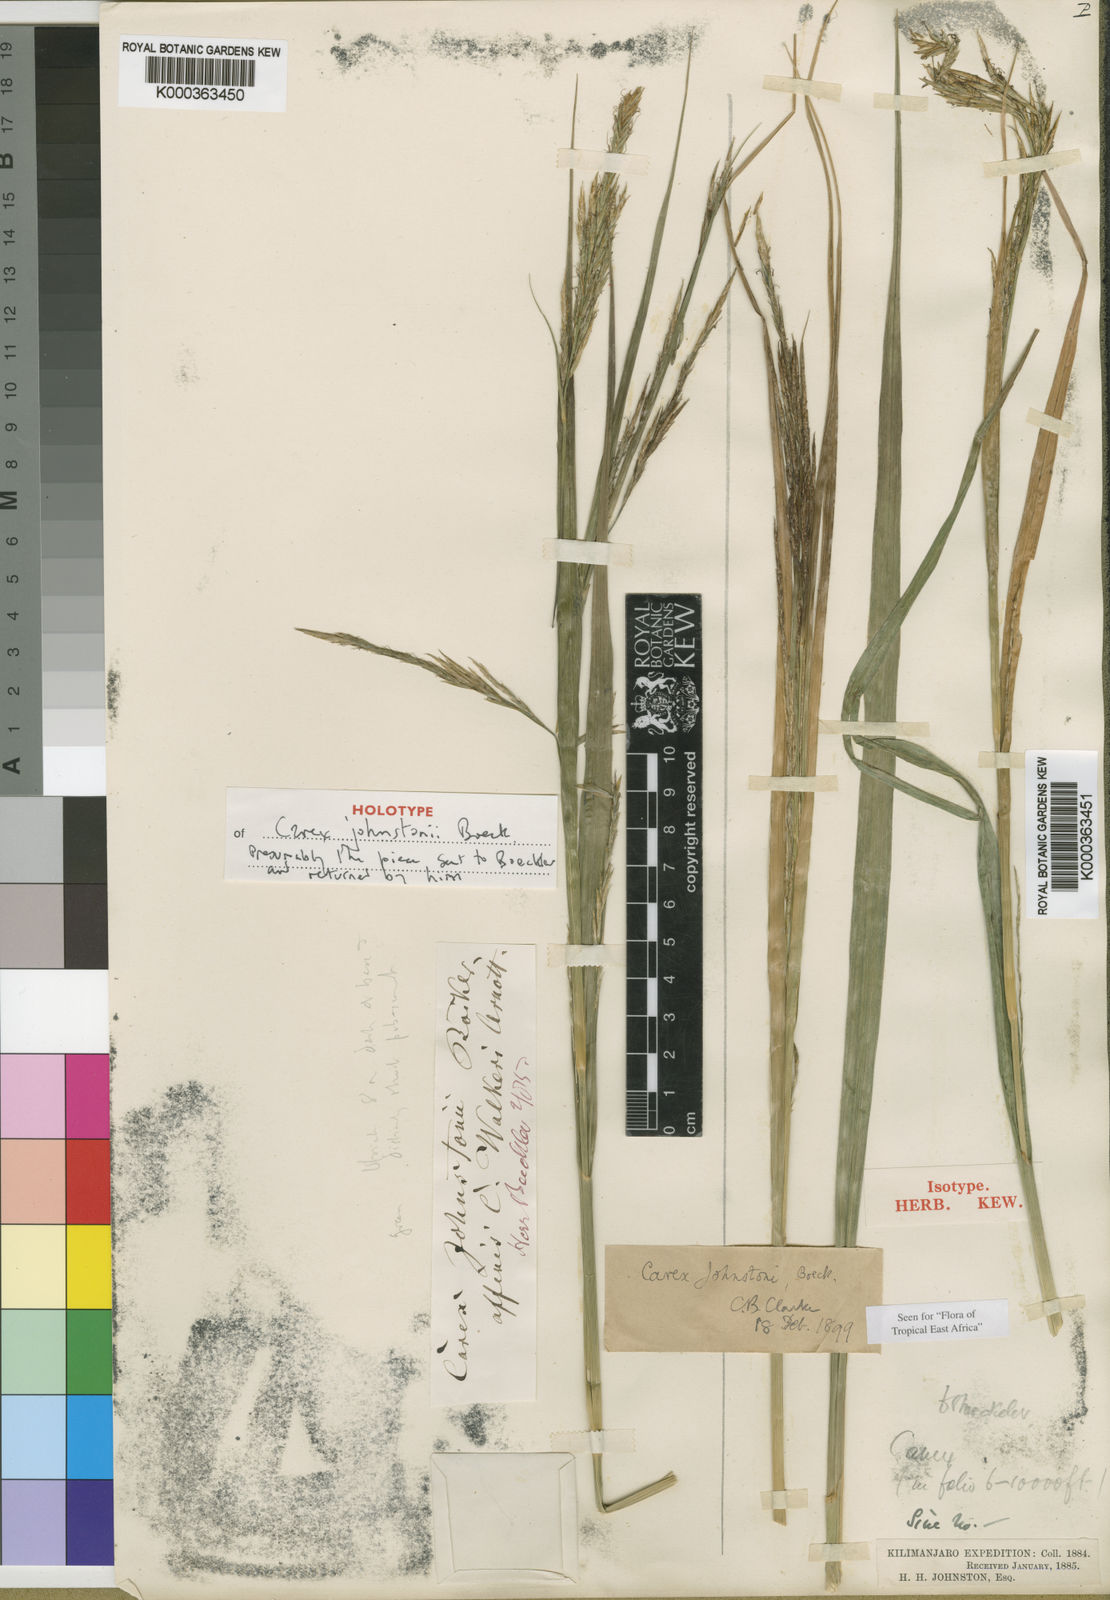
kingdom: Plantae
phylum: Tracheophyta
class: Liliopsida
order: Poales
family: Cyperaceae
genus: Carex
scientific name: Carex johnstonii
